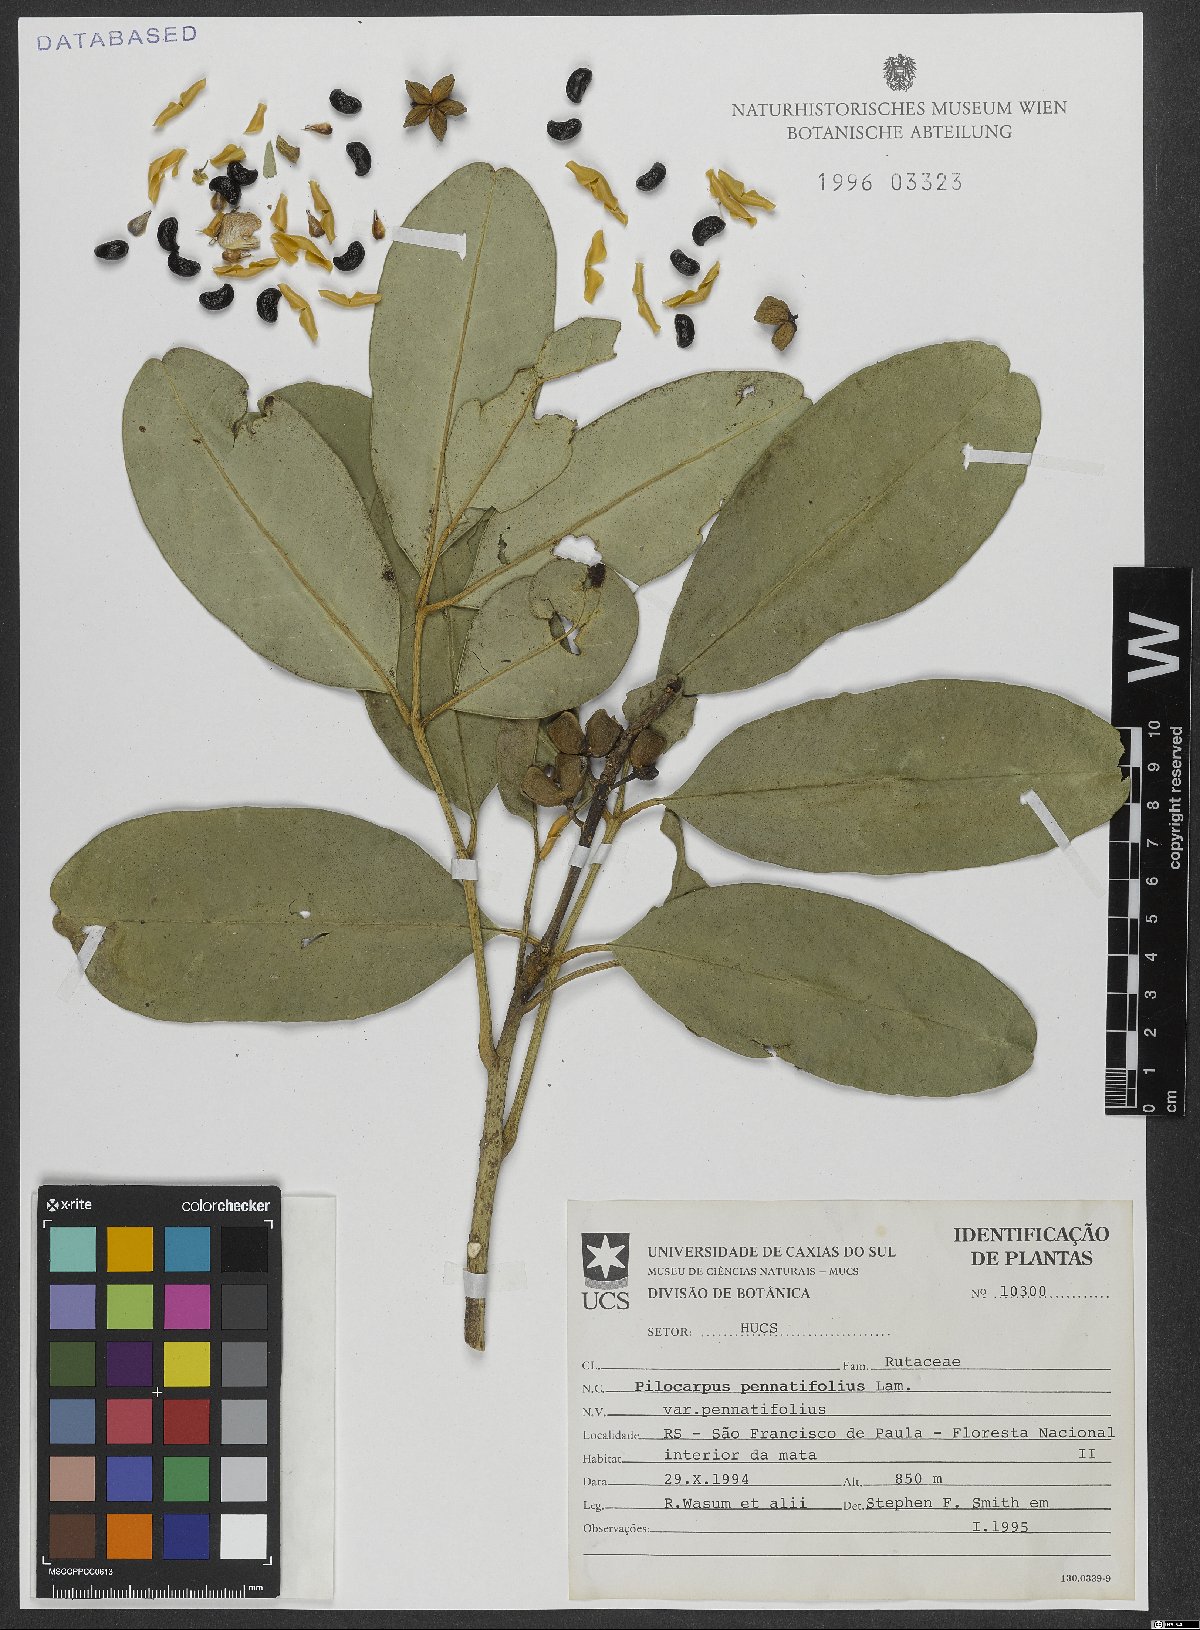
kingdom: Plantae
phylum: Tracheophyta
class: Magnoliopsida
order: Sapindales
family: Rutaceae
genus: Pilocarpus
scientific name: Pilocarpus pennatifolius
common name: Paraguay jaborandi
